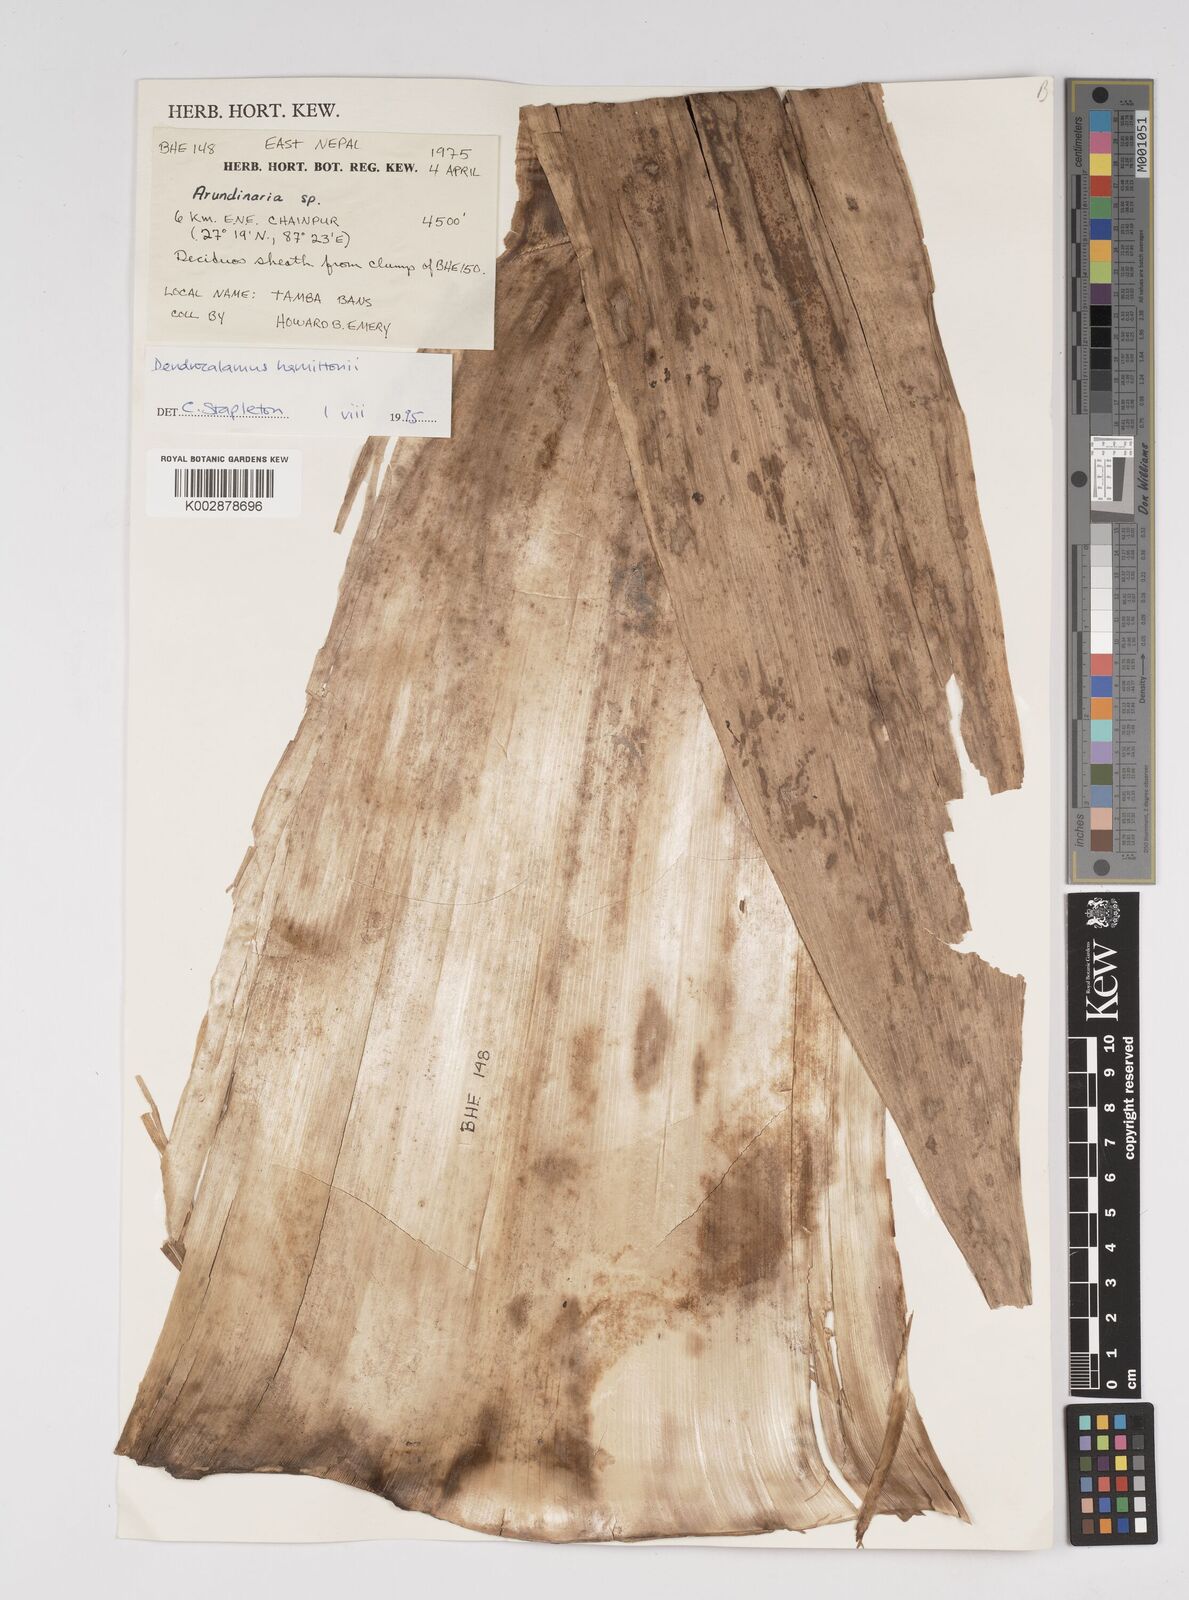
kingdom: Plantae
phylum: Tracheophyta
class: Liliopsida
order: Poales
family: Poaceae
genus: Dendrocalamus
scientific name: Dendrocalamus hamiltonii
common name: Tama bamboo
